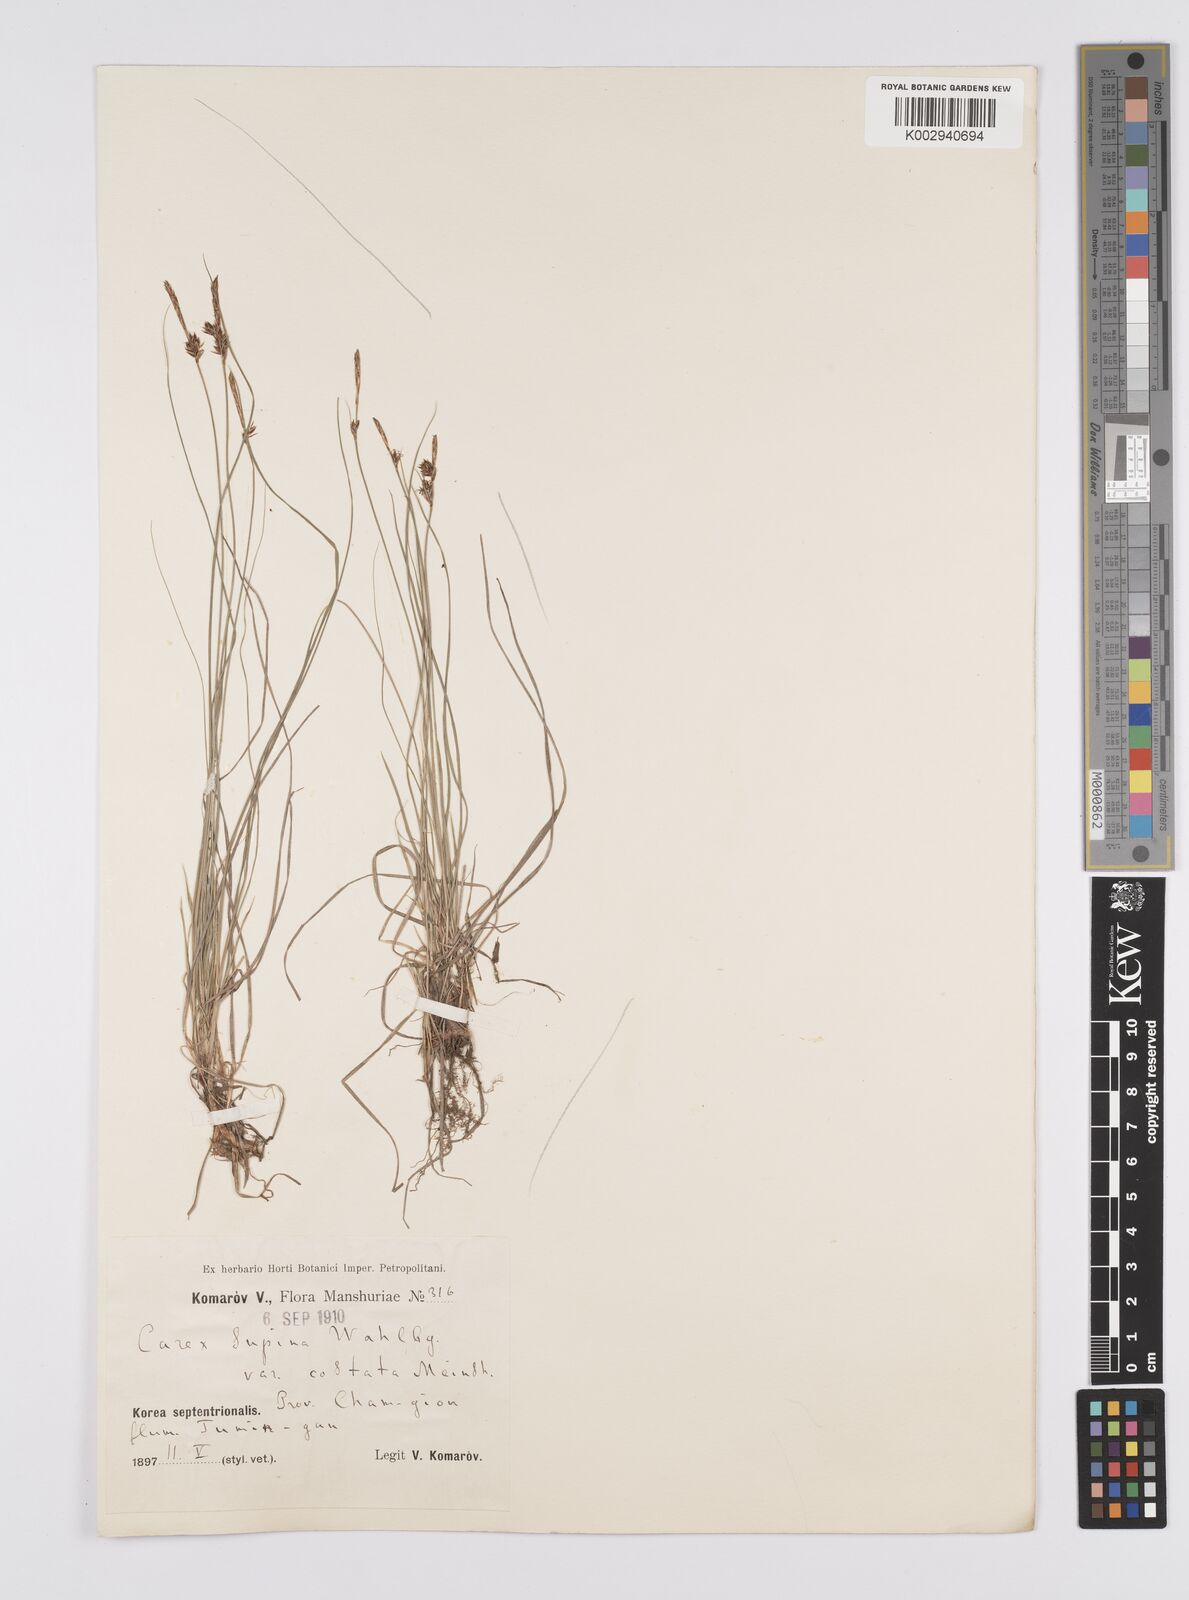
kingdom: Plantae
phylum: Tracheophyta
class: Liliopsida
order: Poales
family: Cyperaceae
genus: Carex
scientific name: Carex supina
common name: Lying-back sedge
